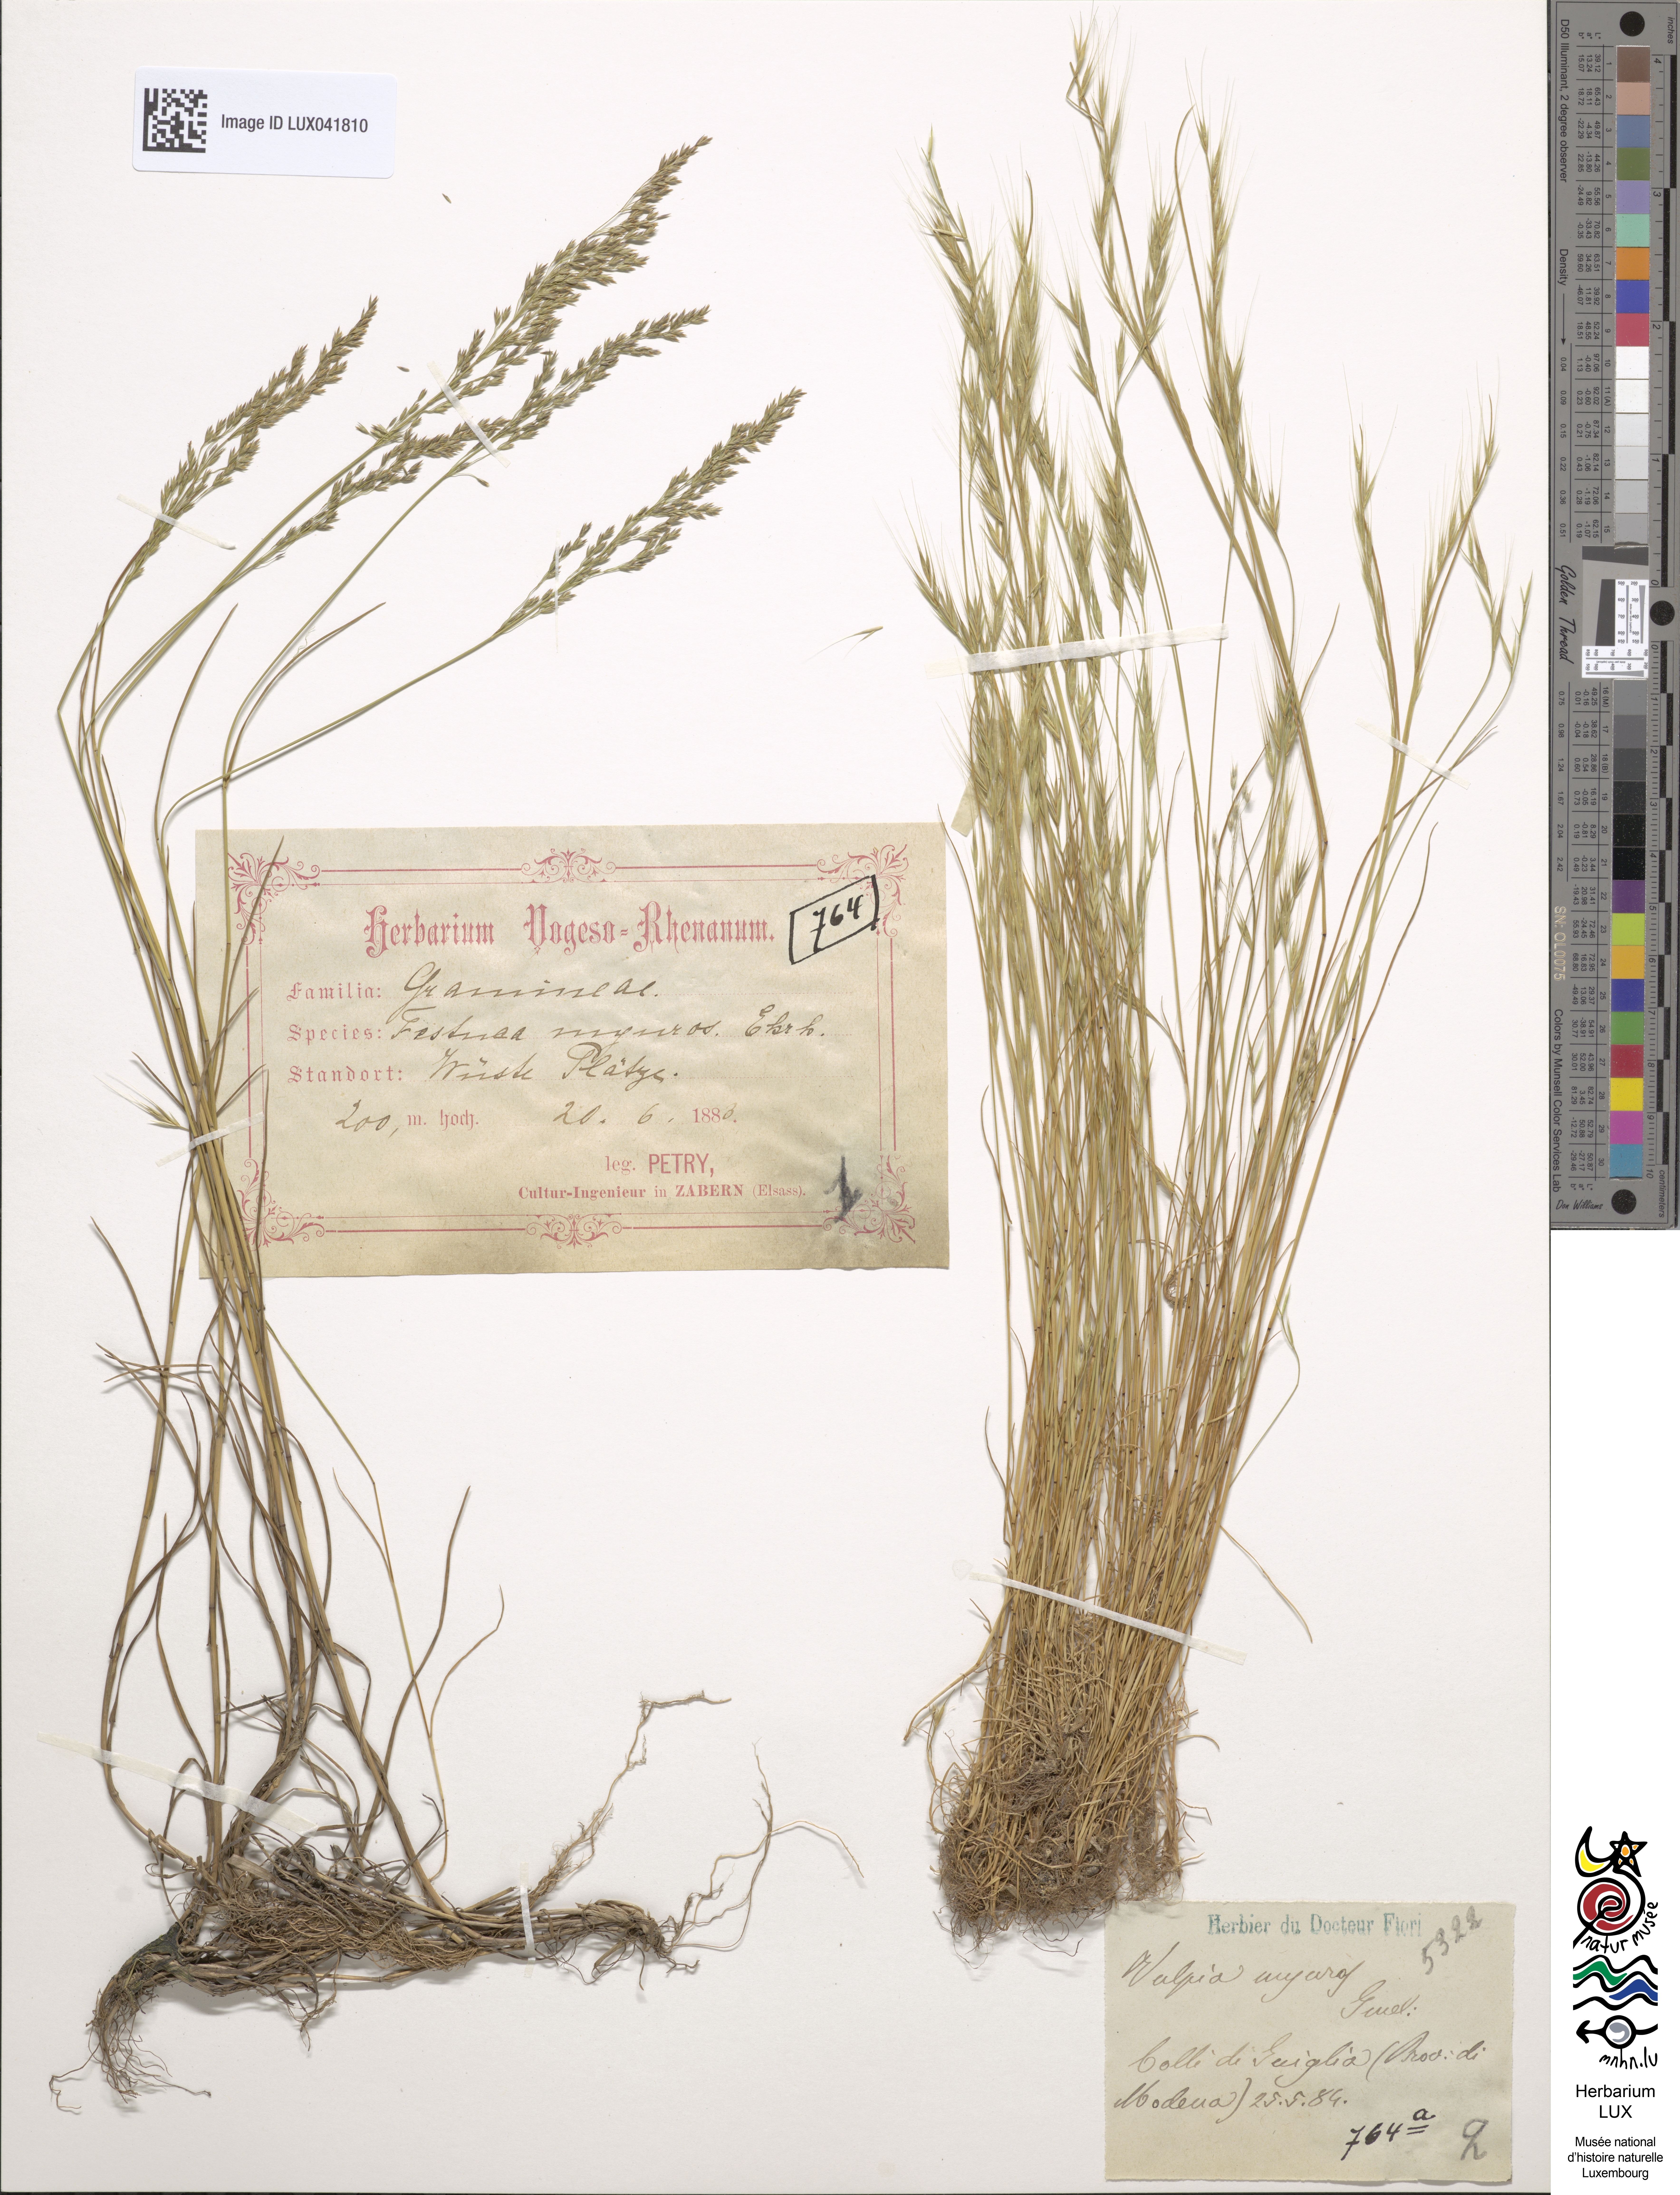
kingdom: Plantae
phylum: Tracheophyta
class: Liliopsida
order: Poales
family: Poaceae
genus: Festuca
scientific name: Festuca myuros
